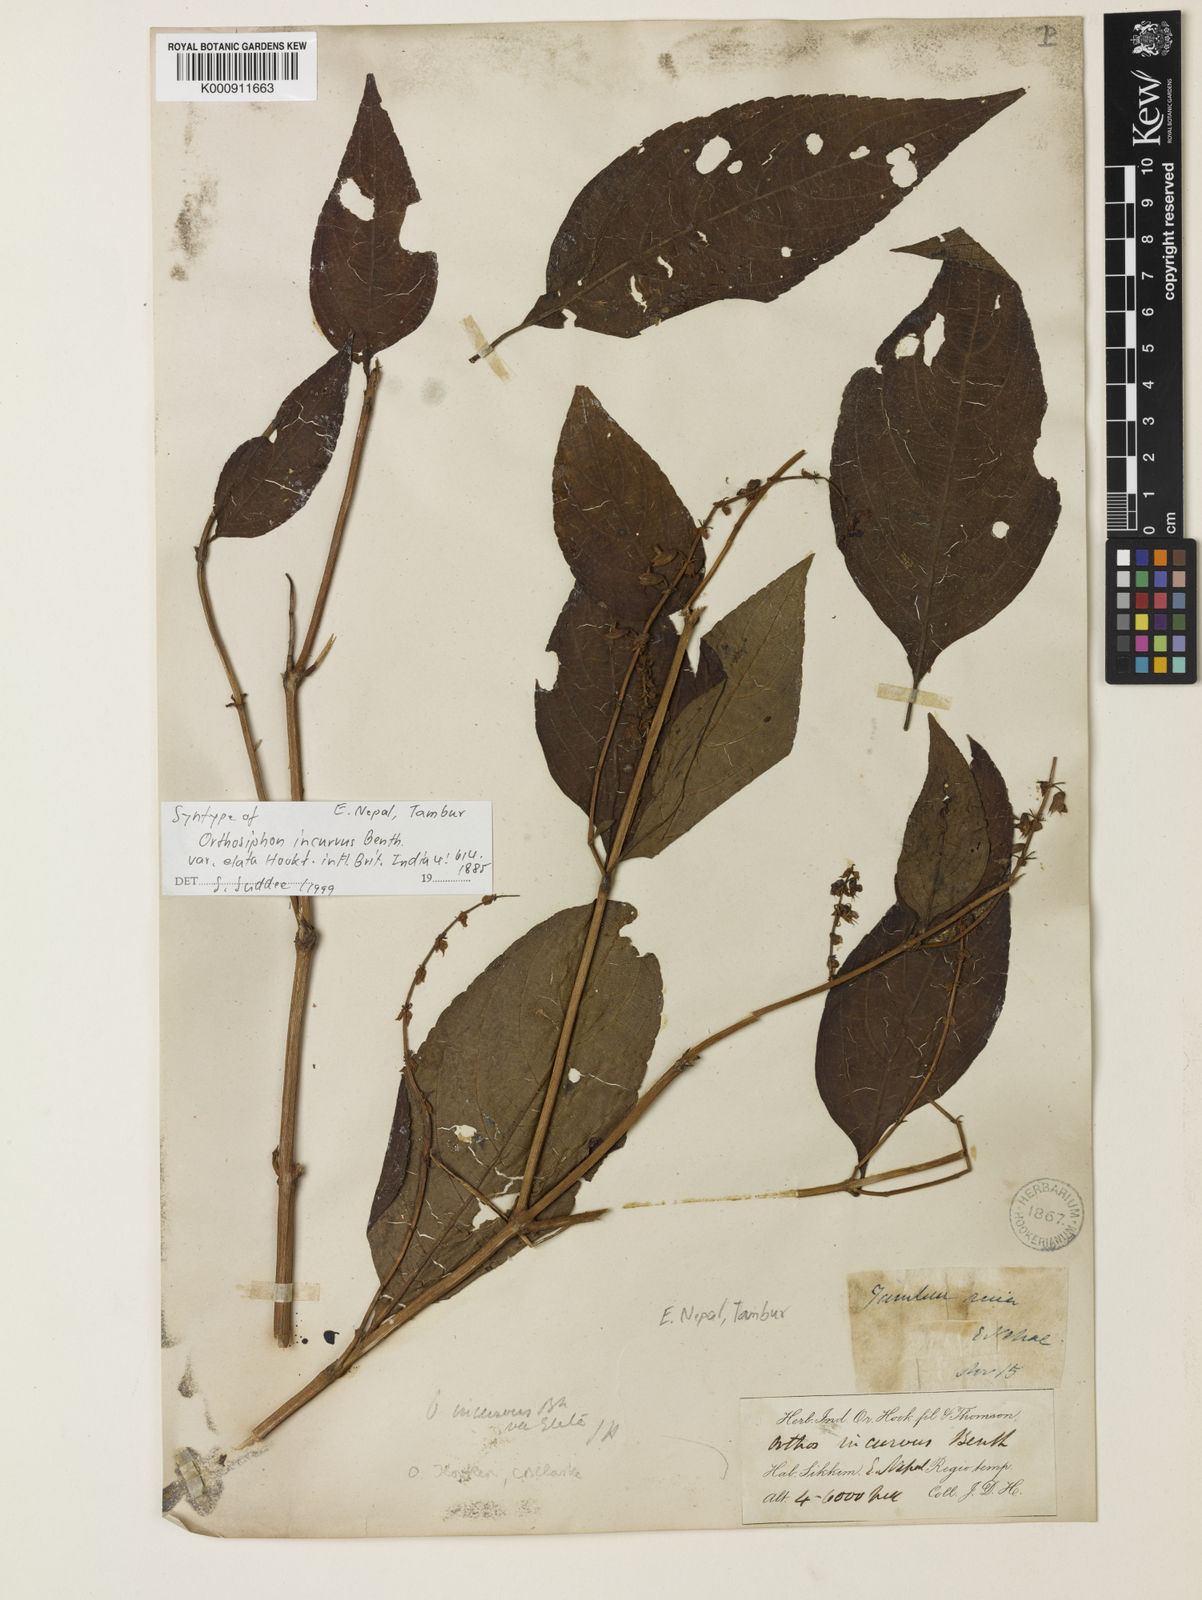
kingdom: Plantae
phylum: Tracheophyta
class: Magnoliopsida
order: Lamiales
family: Lamiaceae
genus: Orthosiphon
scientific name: Orthosiphon incurvus
